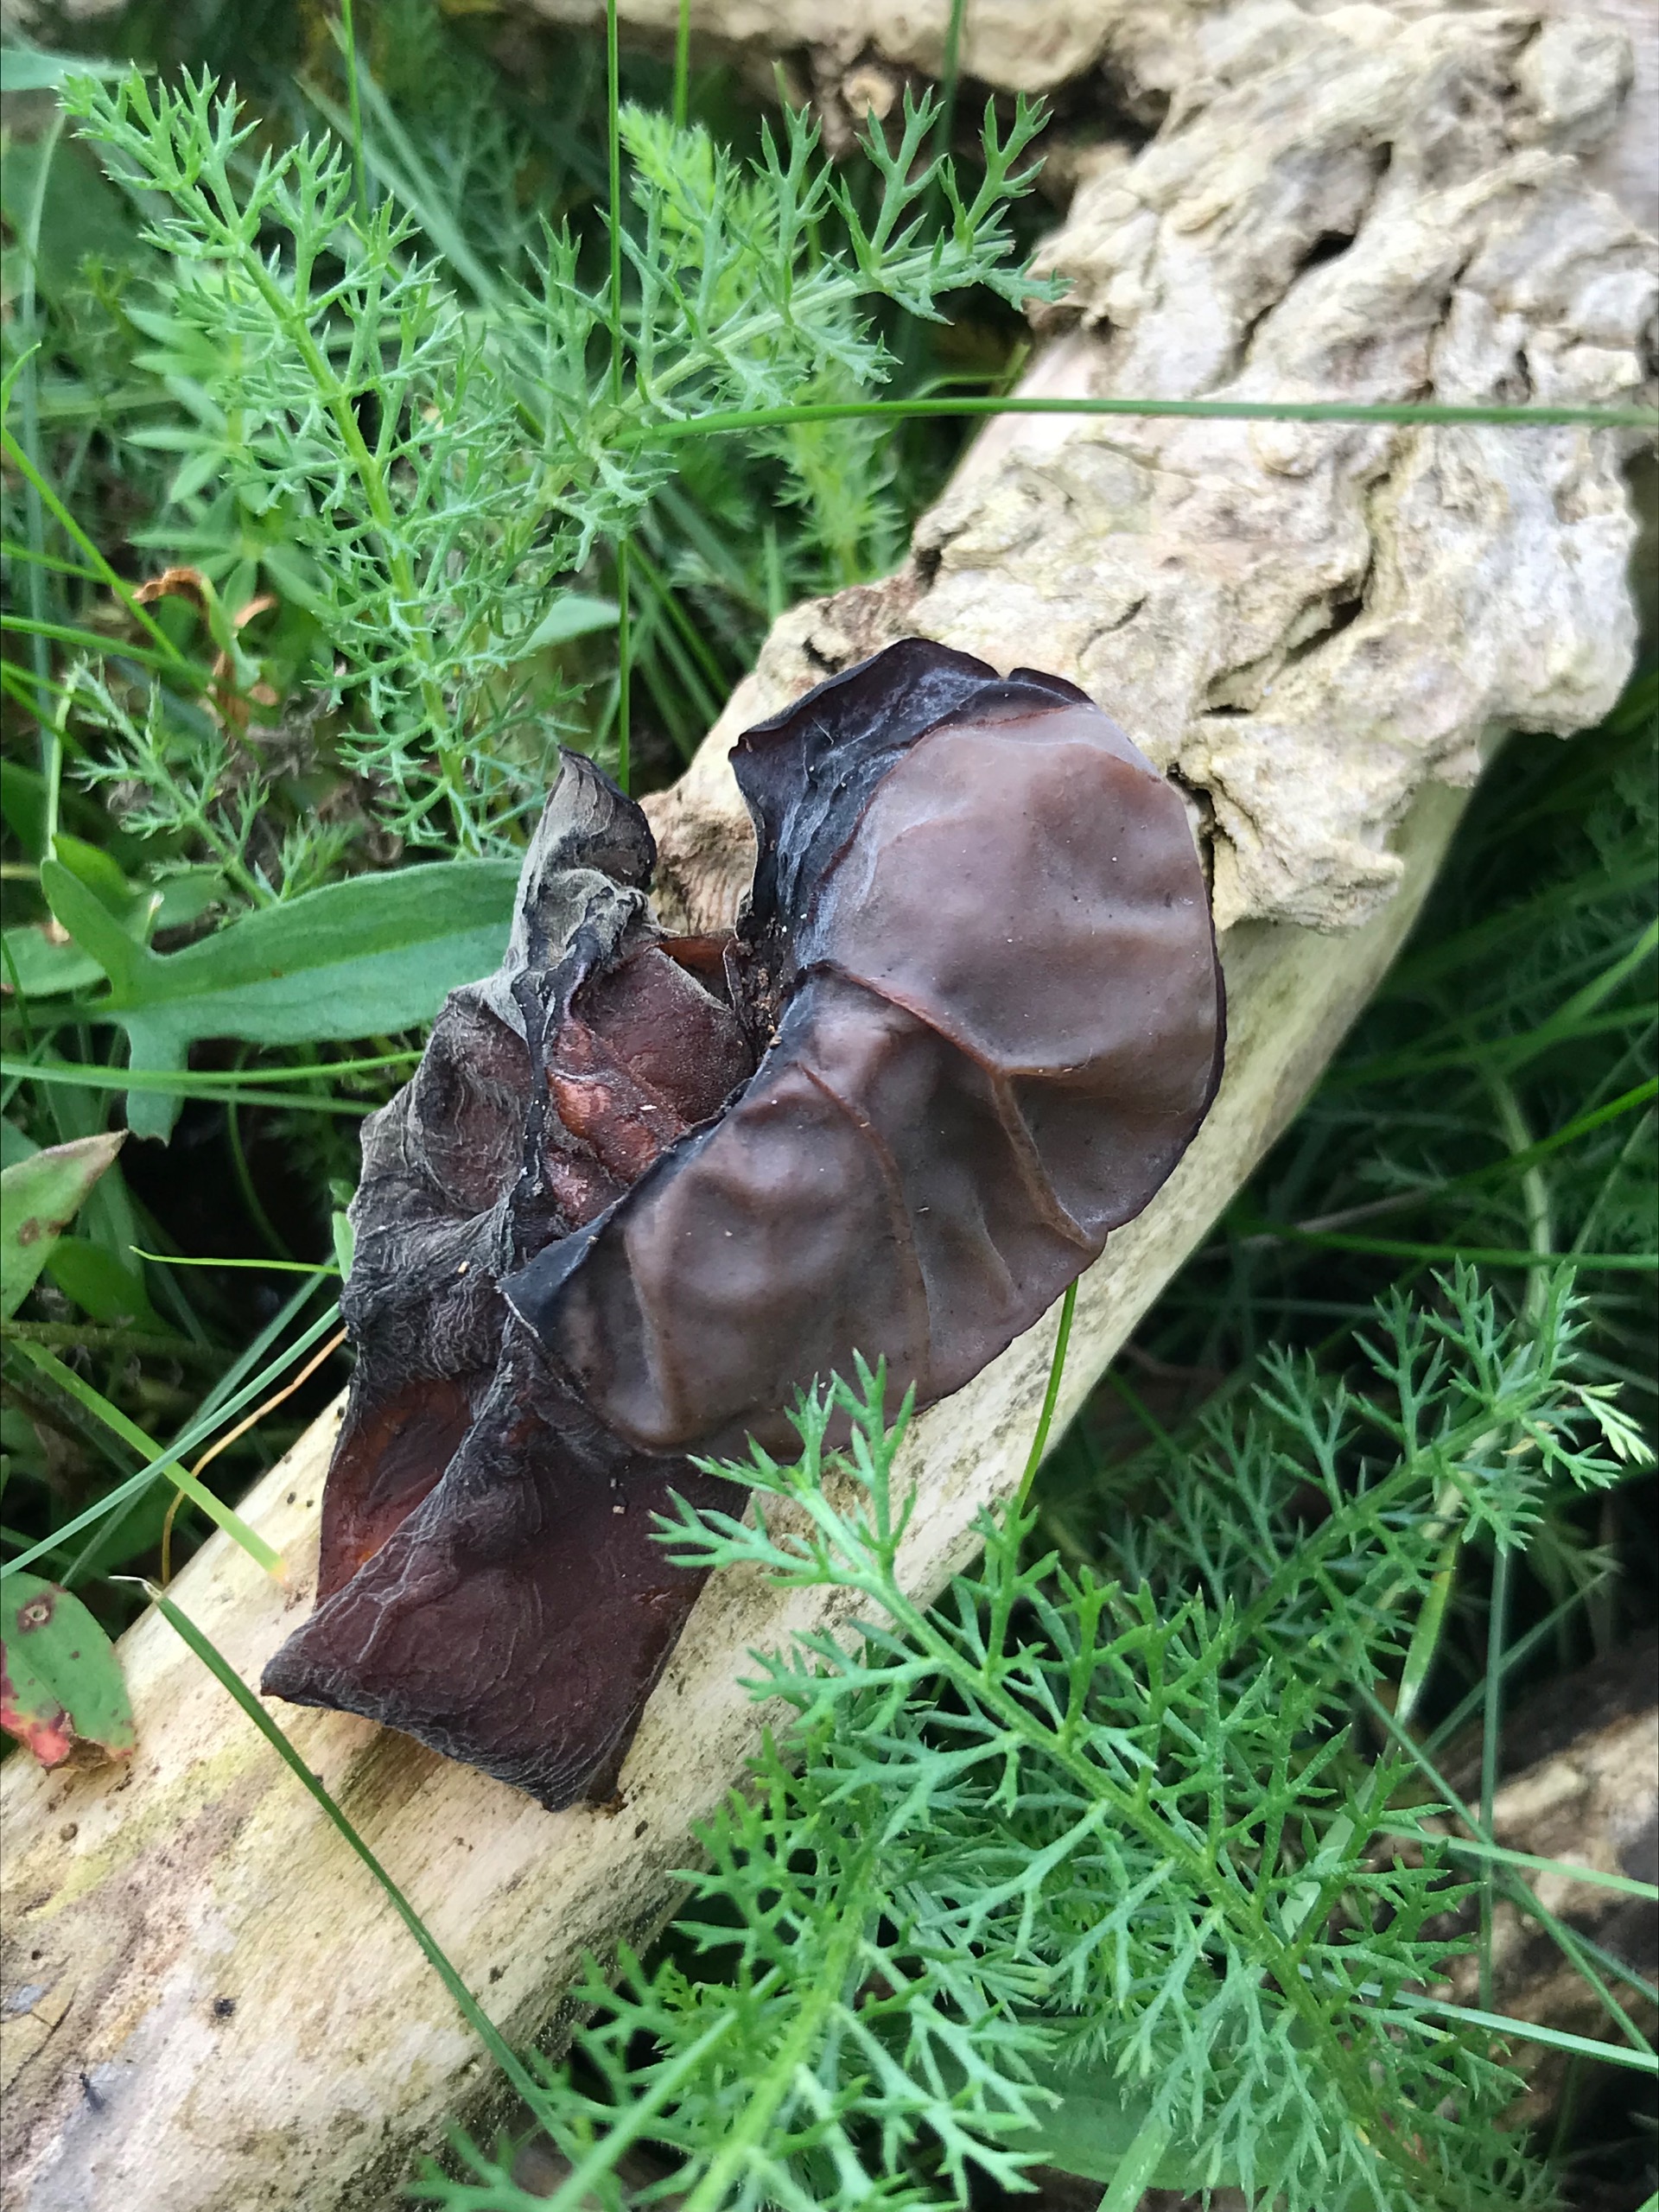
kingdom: Fungi
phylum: Basidiomycota
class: Agaricomycetes
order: Auriculariales
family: Auriculariaceae
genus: Auricularia
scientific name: Auricularia auricula-judae
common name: Almindelig judasøre
